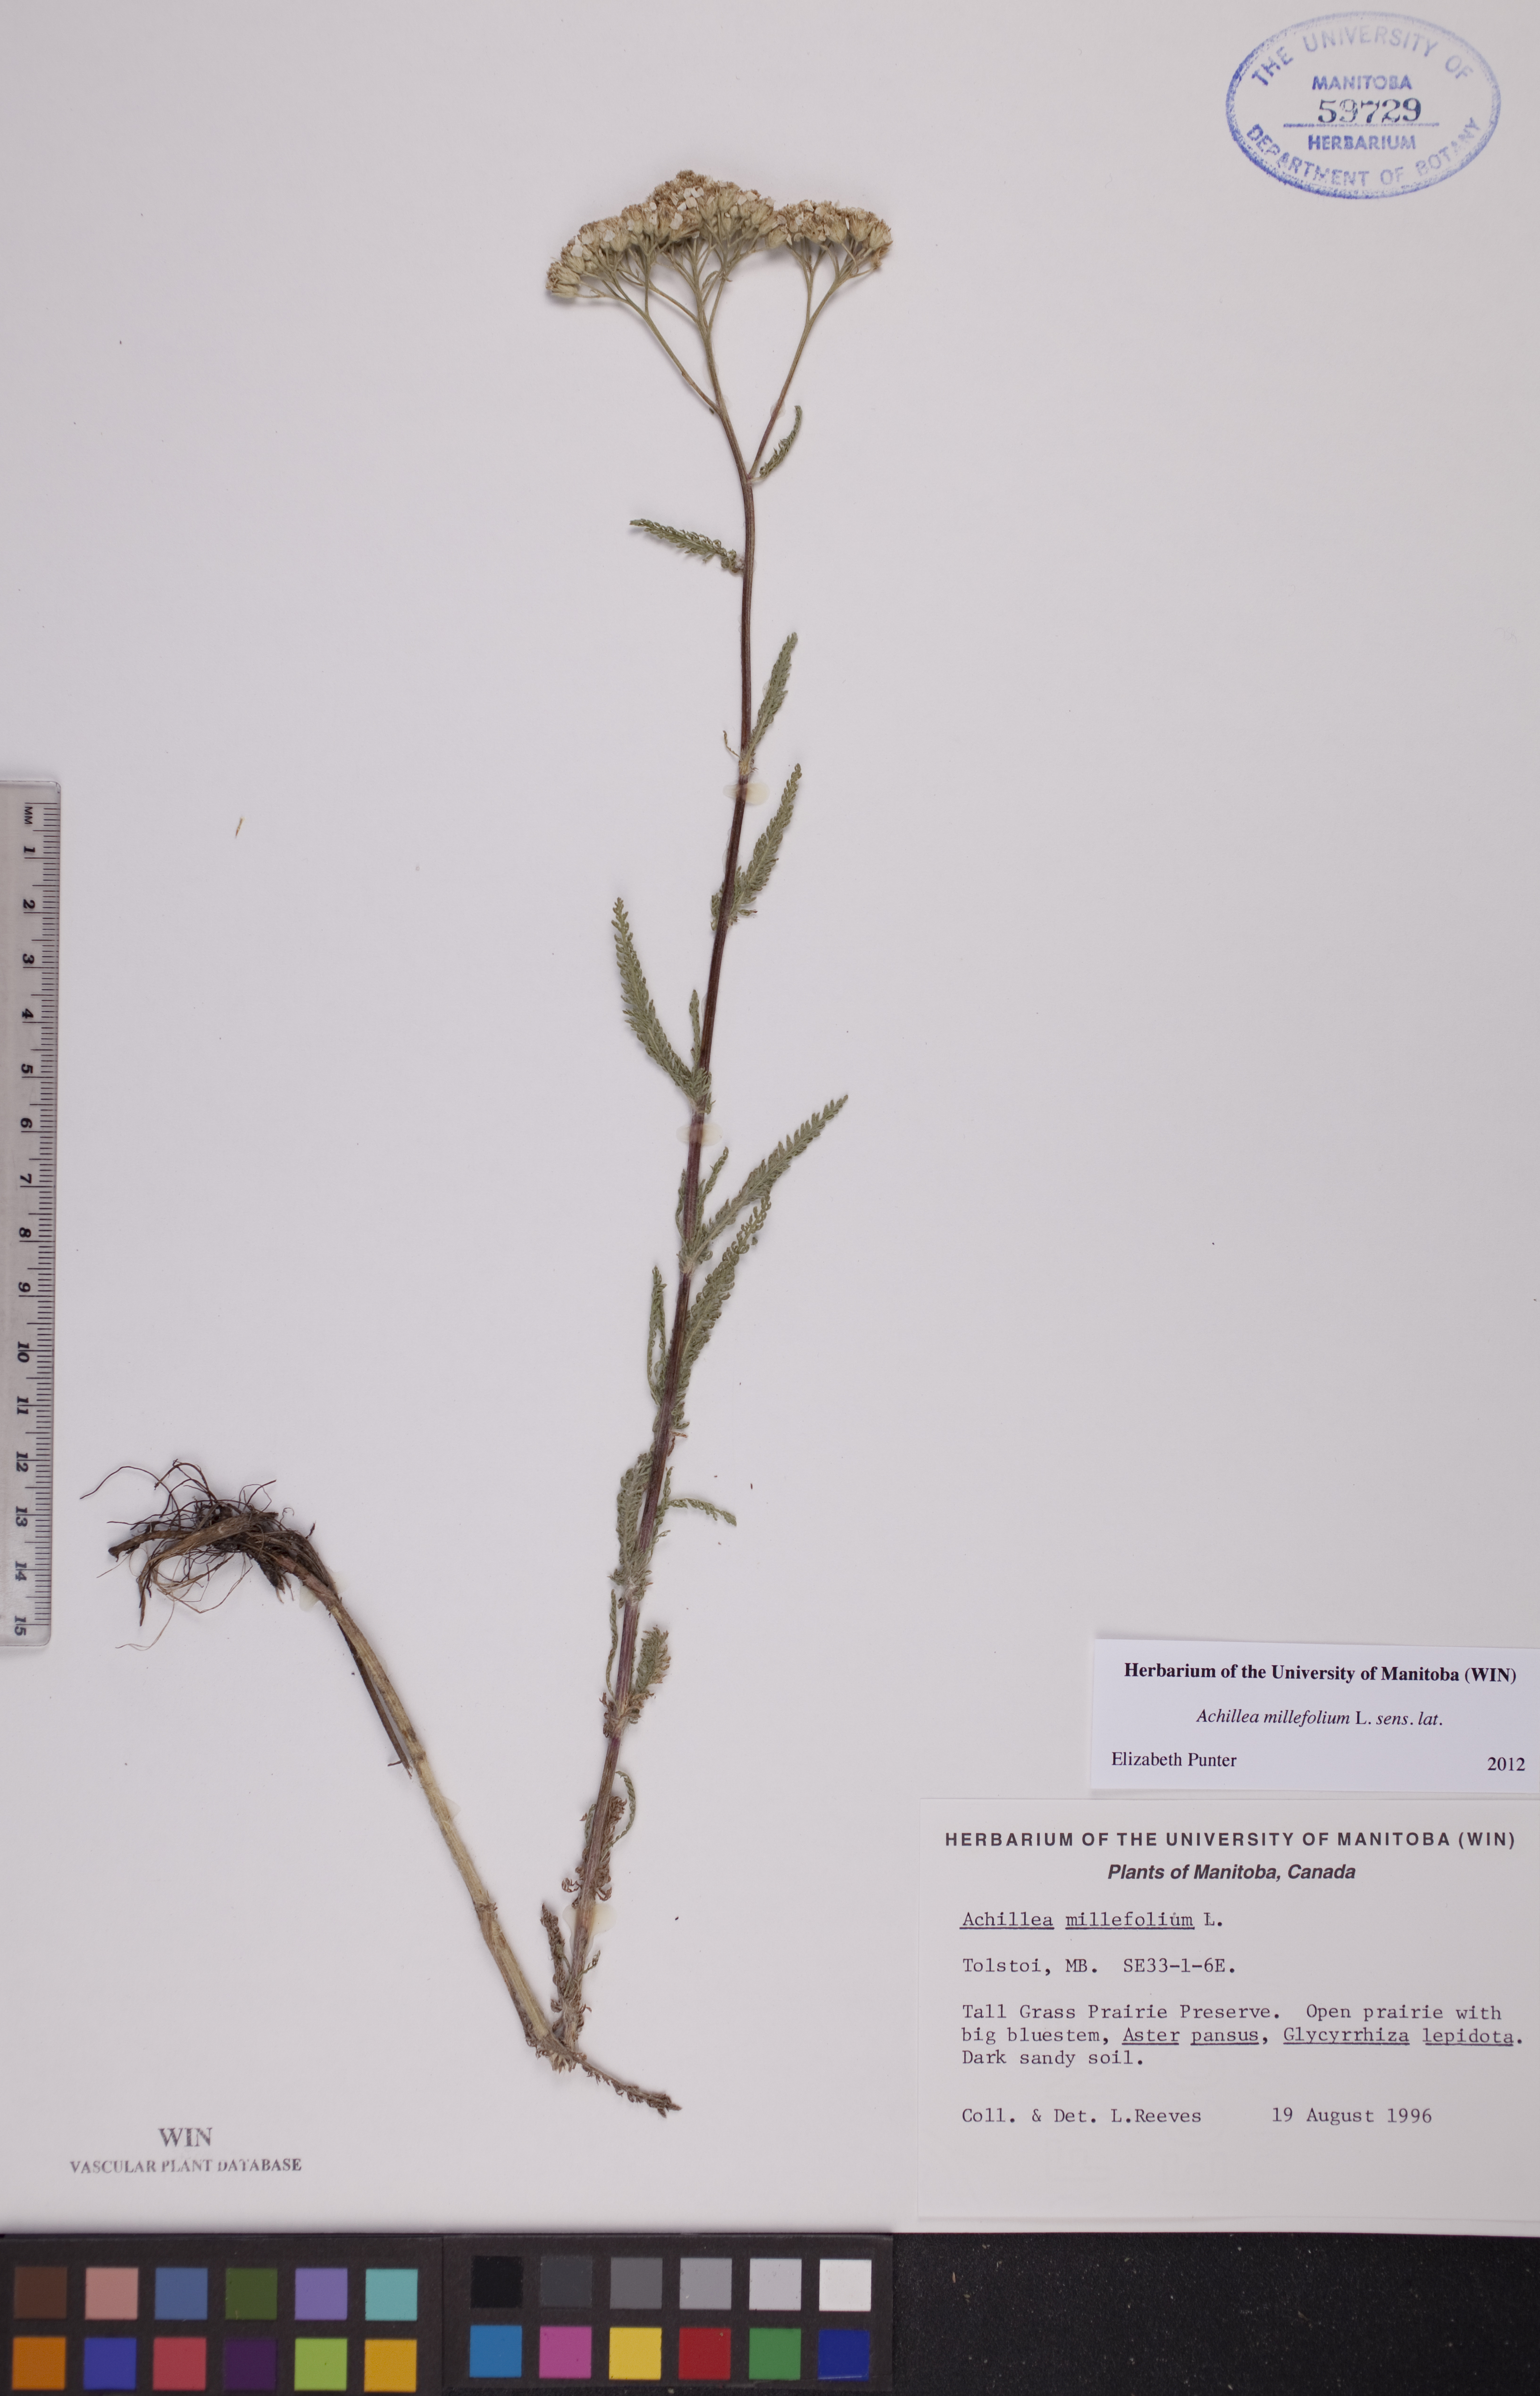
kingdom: Plantae
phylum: Tracheophyta
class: Magnoliopsida
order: Asterales
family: Asteraceae
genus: Achillea
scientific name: Achillea millefolium
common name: Yarrow
